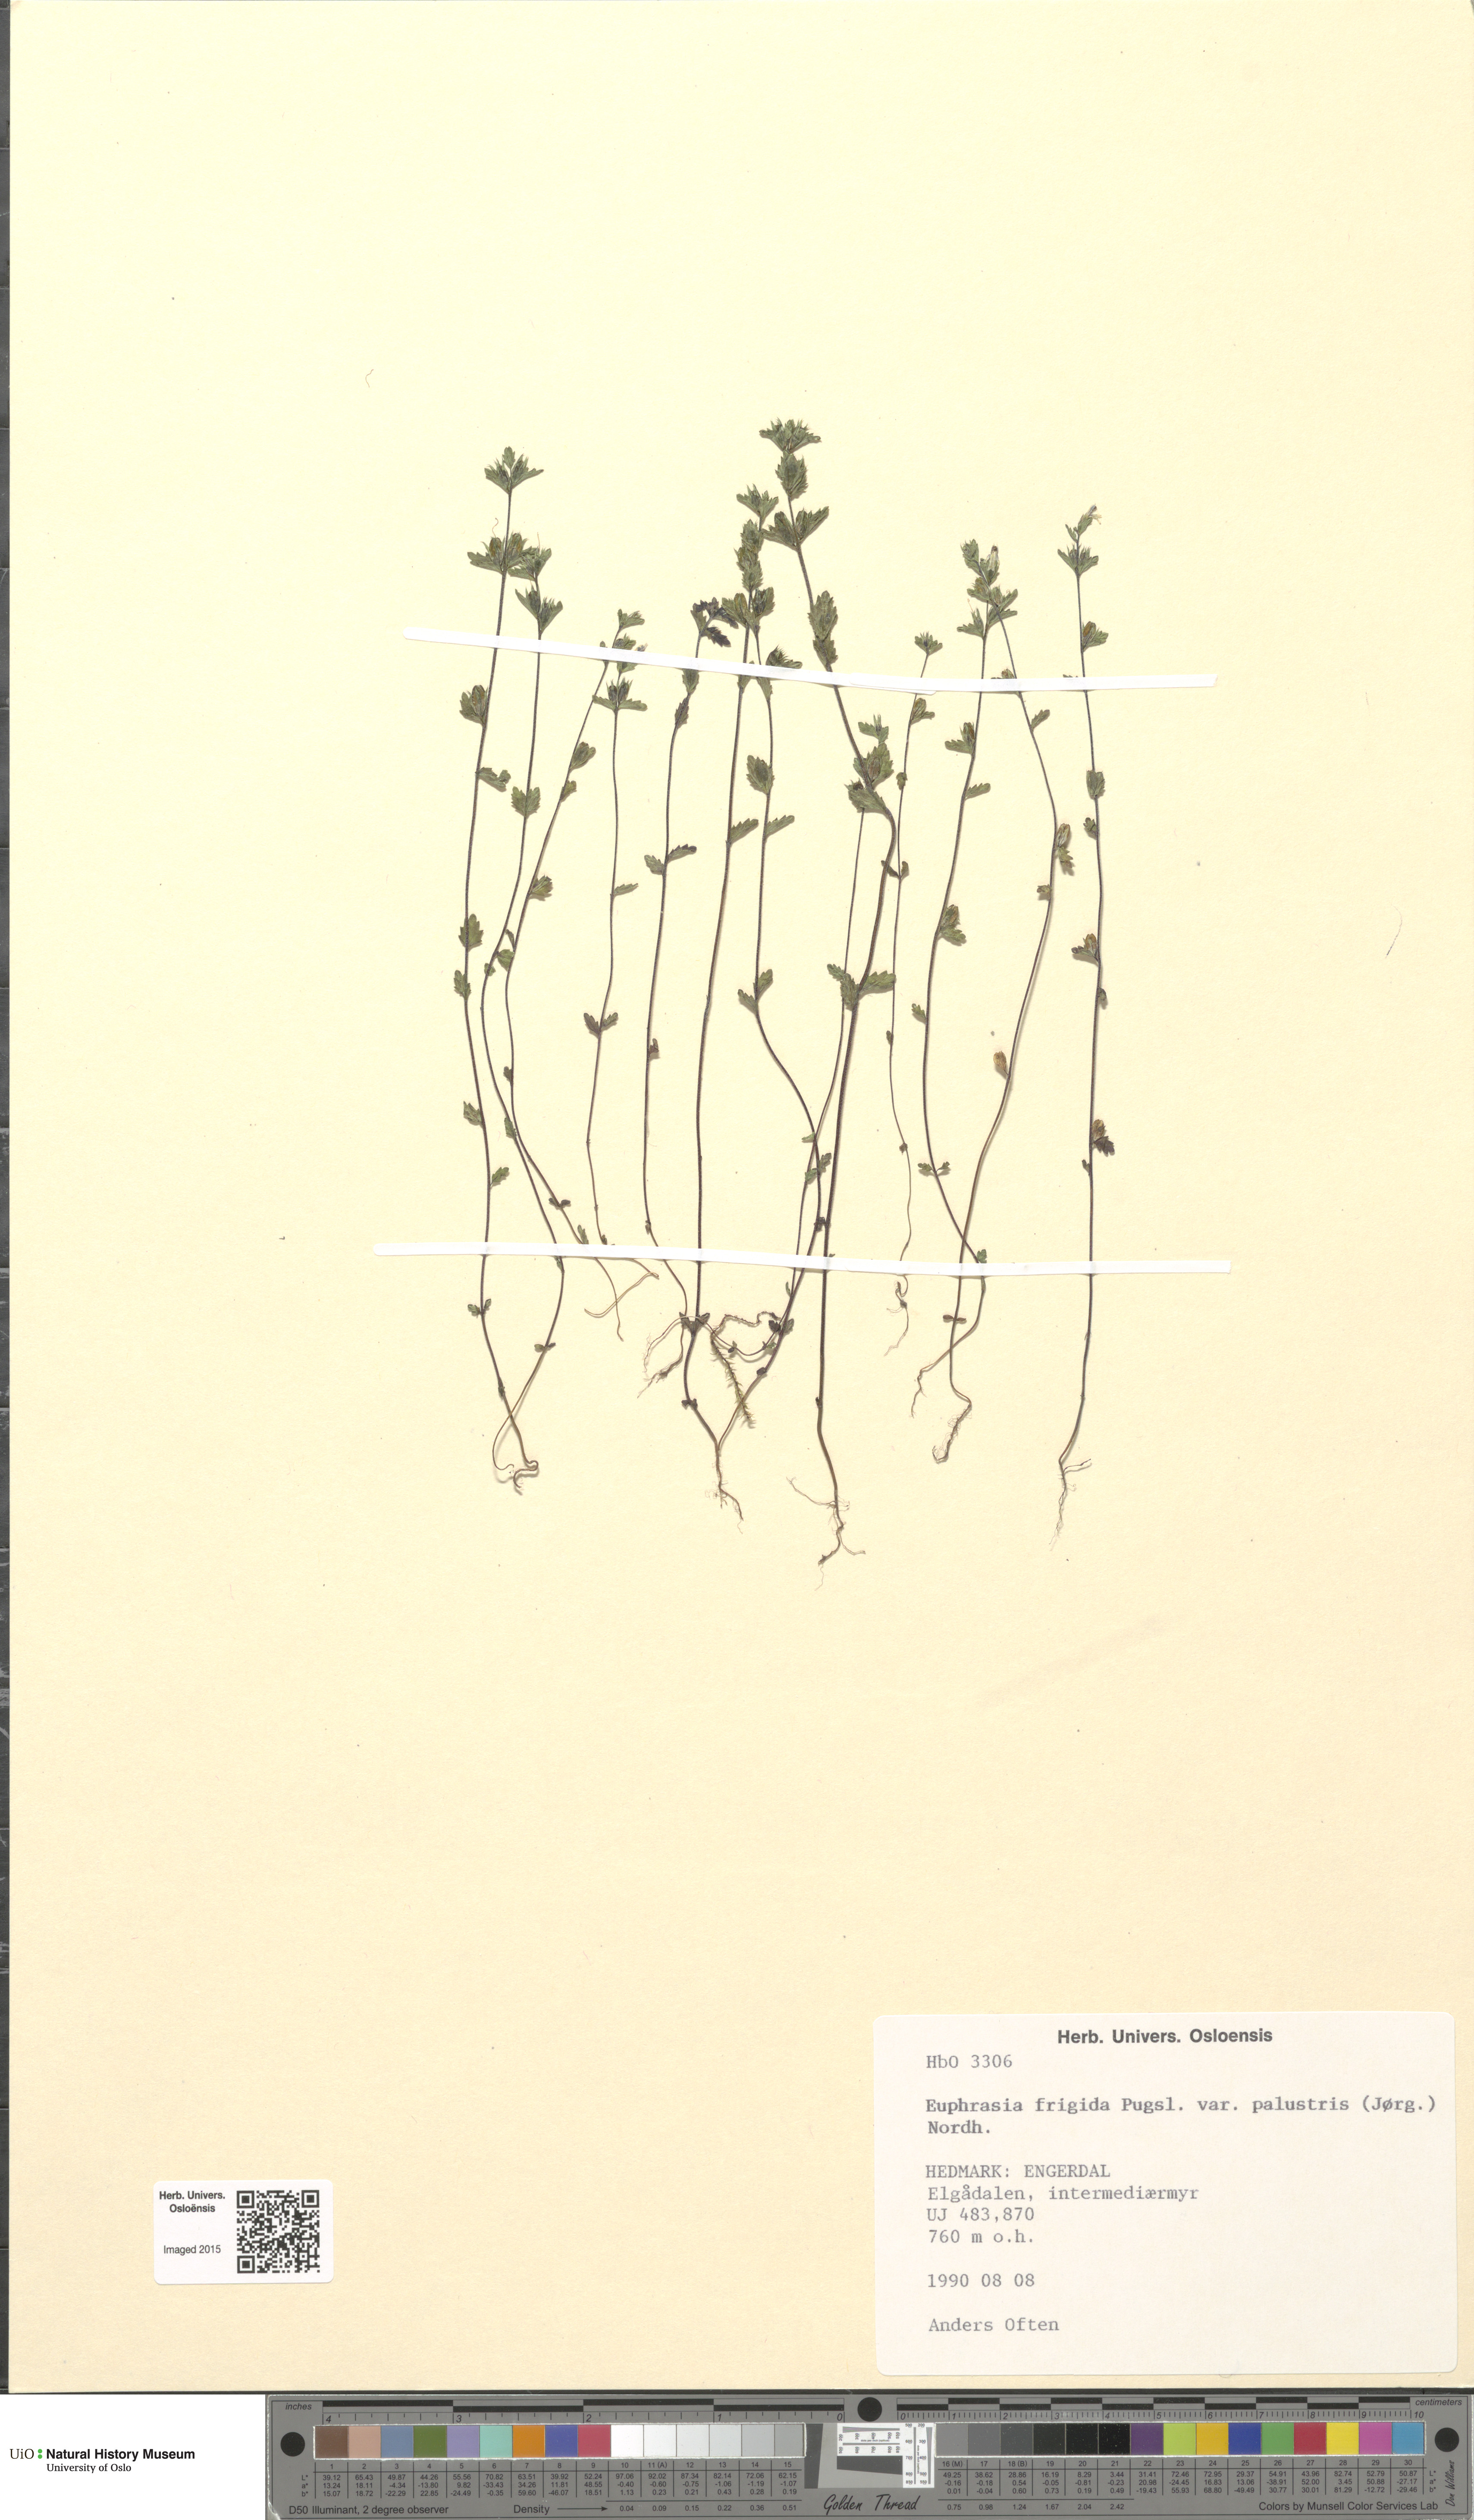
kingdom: Plantae
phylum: Tracheophyta
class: Magnoliopsida
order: Lamiales
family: Orobanchaceae
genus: Euphrasia
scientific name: Euphrasia wettsteinii
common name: Wettstein's eyebright
